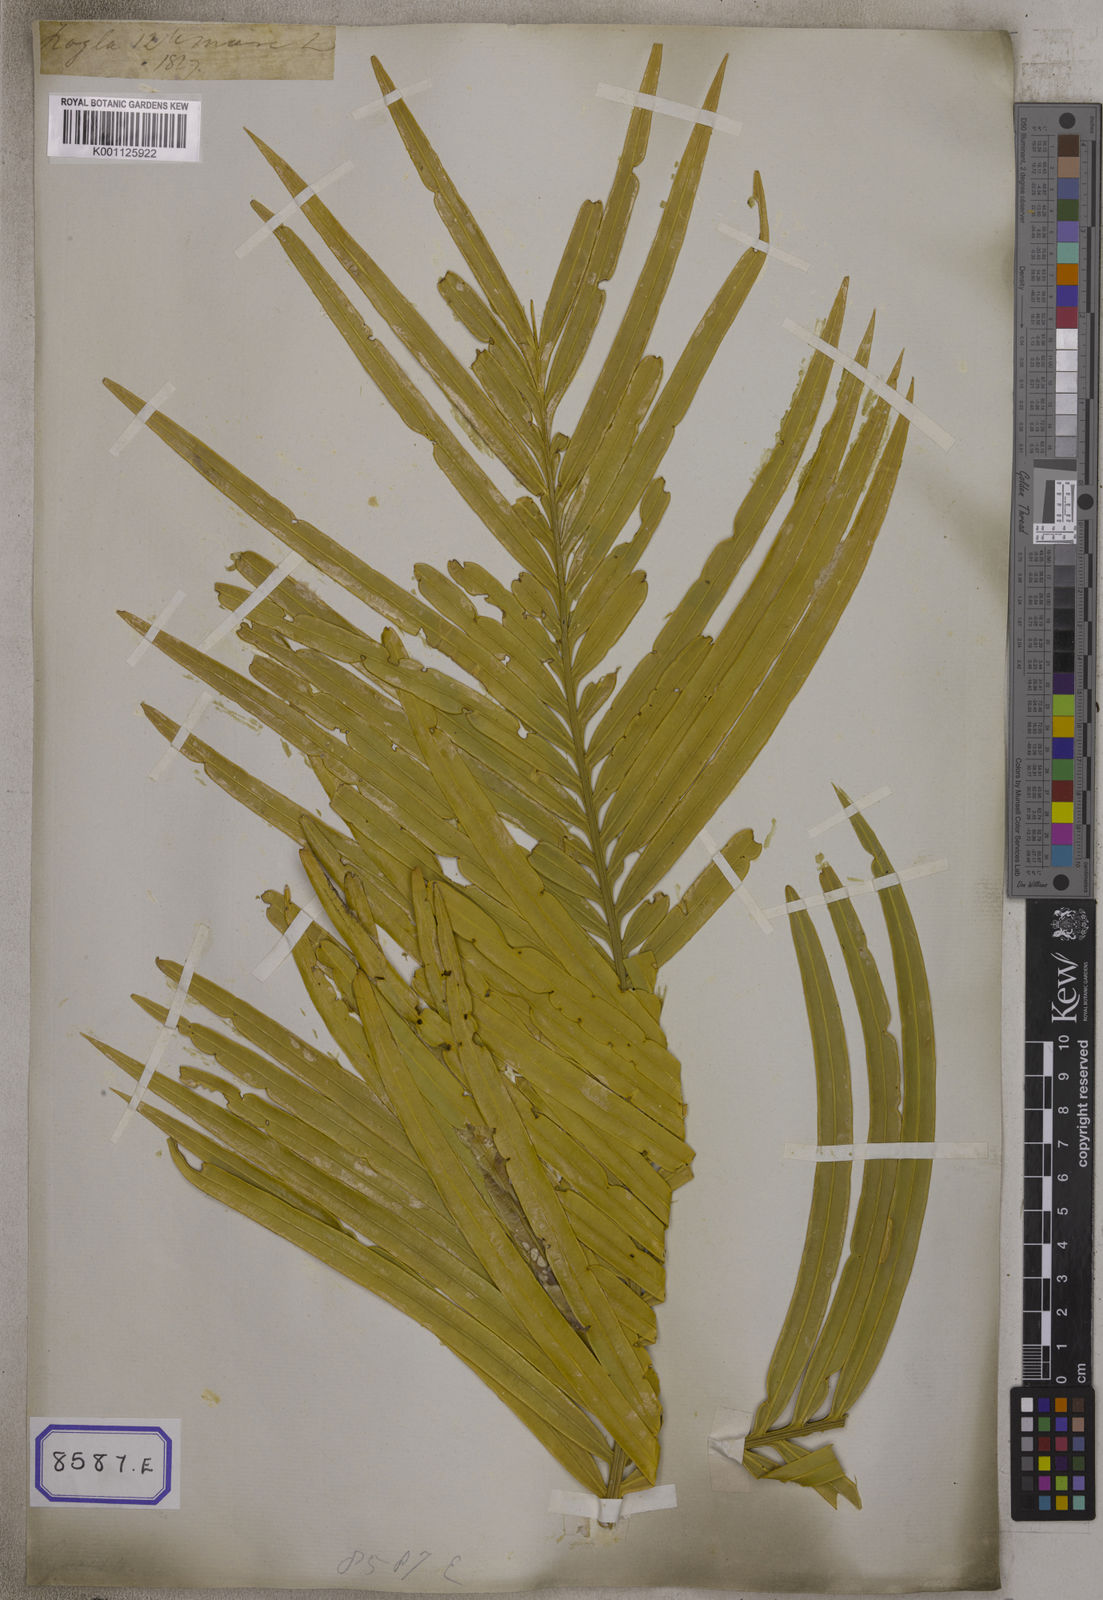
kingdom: Plantae
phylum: Tracheophyta
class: Cycadopsida
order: Cycadales
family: Cycadaceae
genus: Cycas
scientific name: Cycas circinalis
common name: Queen sago
